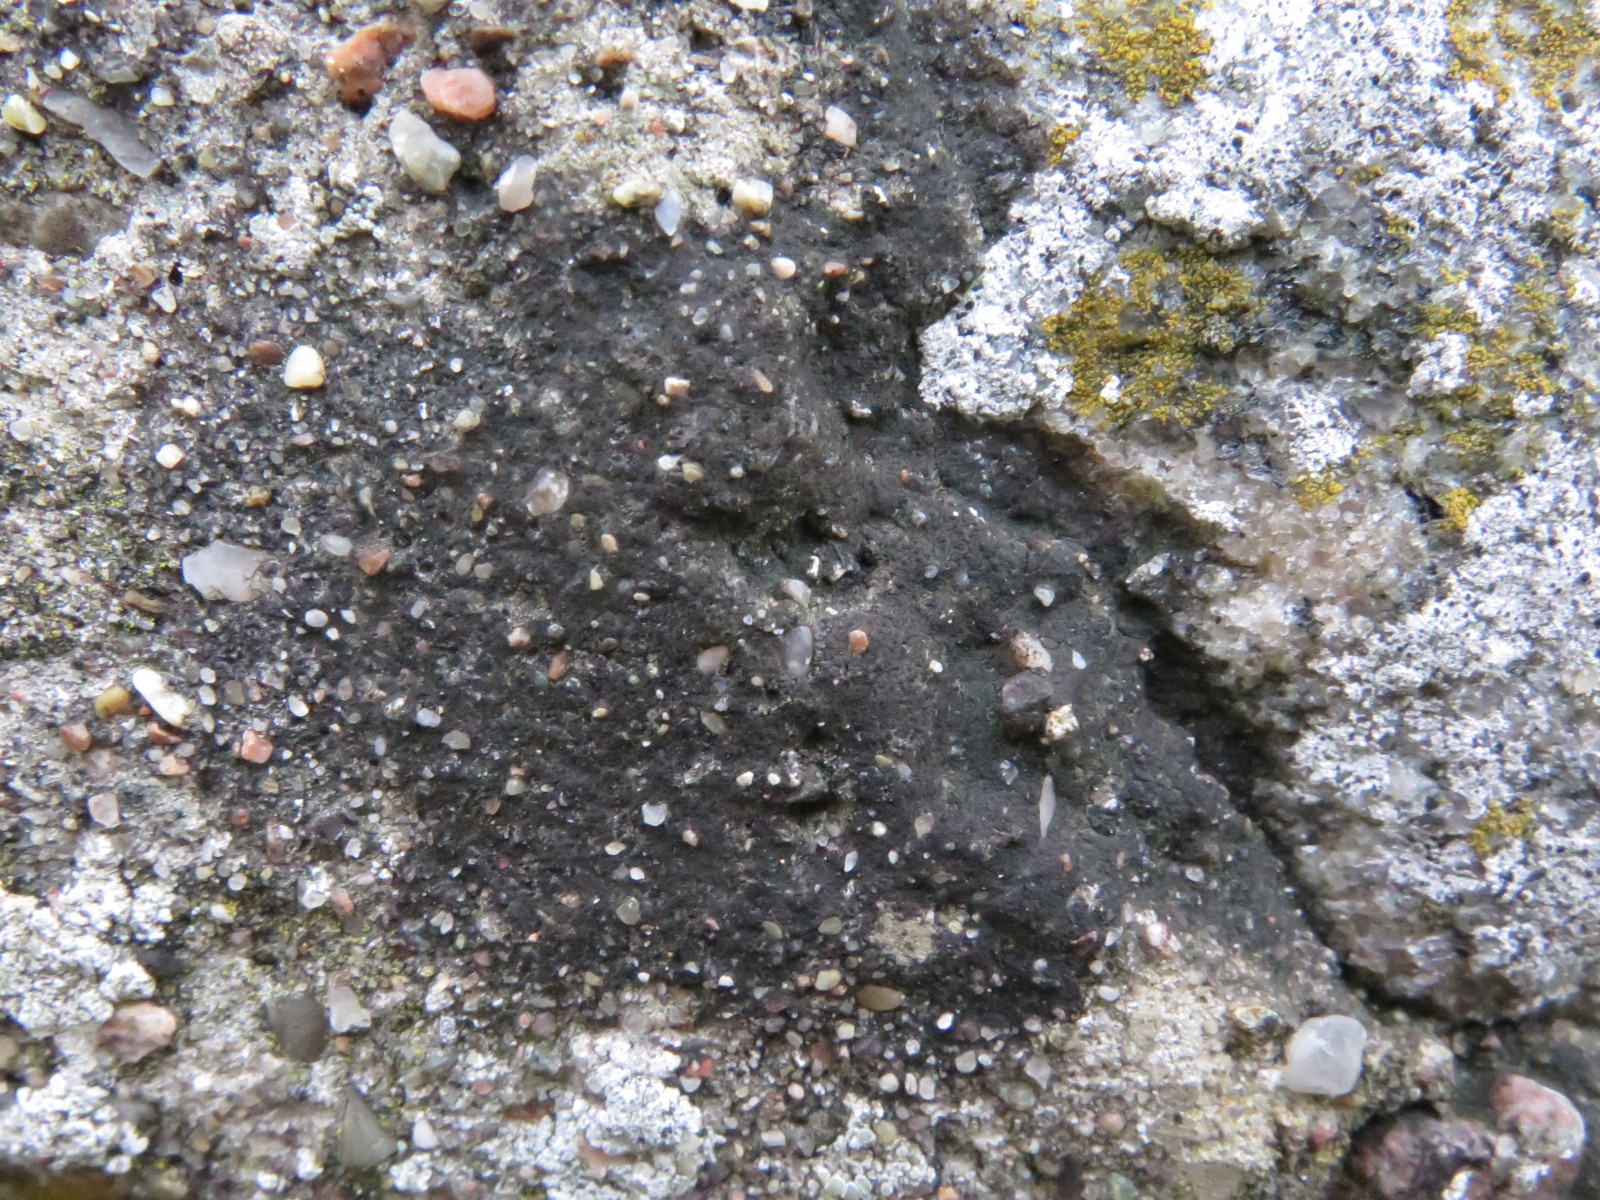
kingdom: Fungi
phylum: Ascomycota
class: Eurotiomycetes
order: Verrucariales
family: Verrucariaceae
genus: Verrucaria
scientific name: Verrucaria nigrescens
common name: sortbrun vortelav
